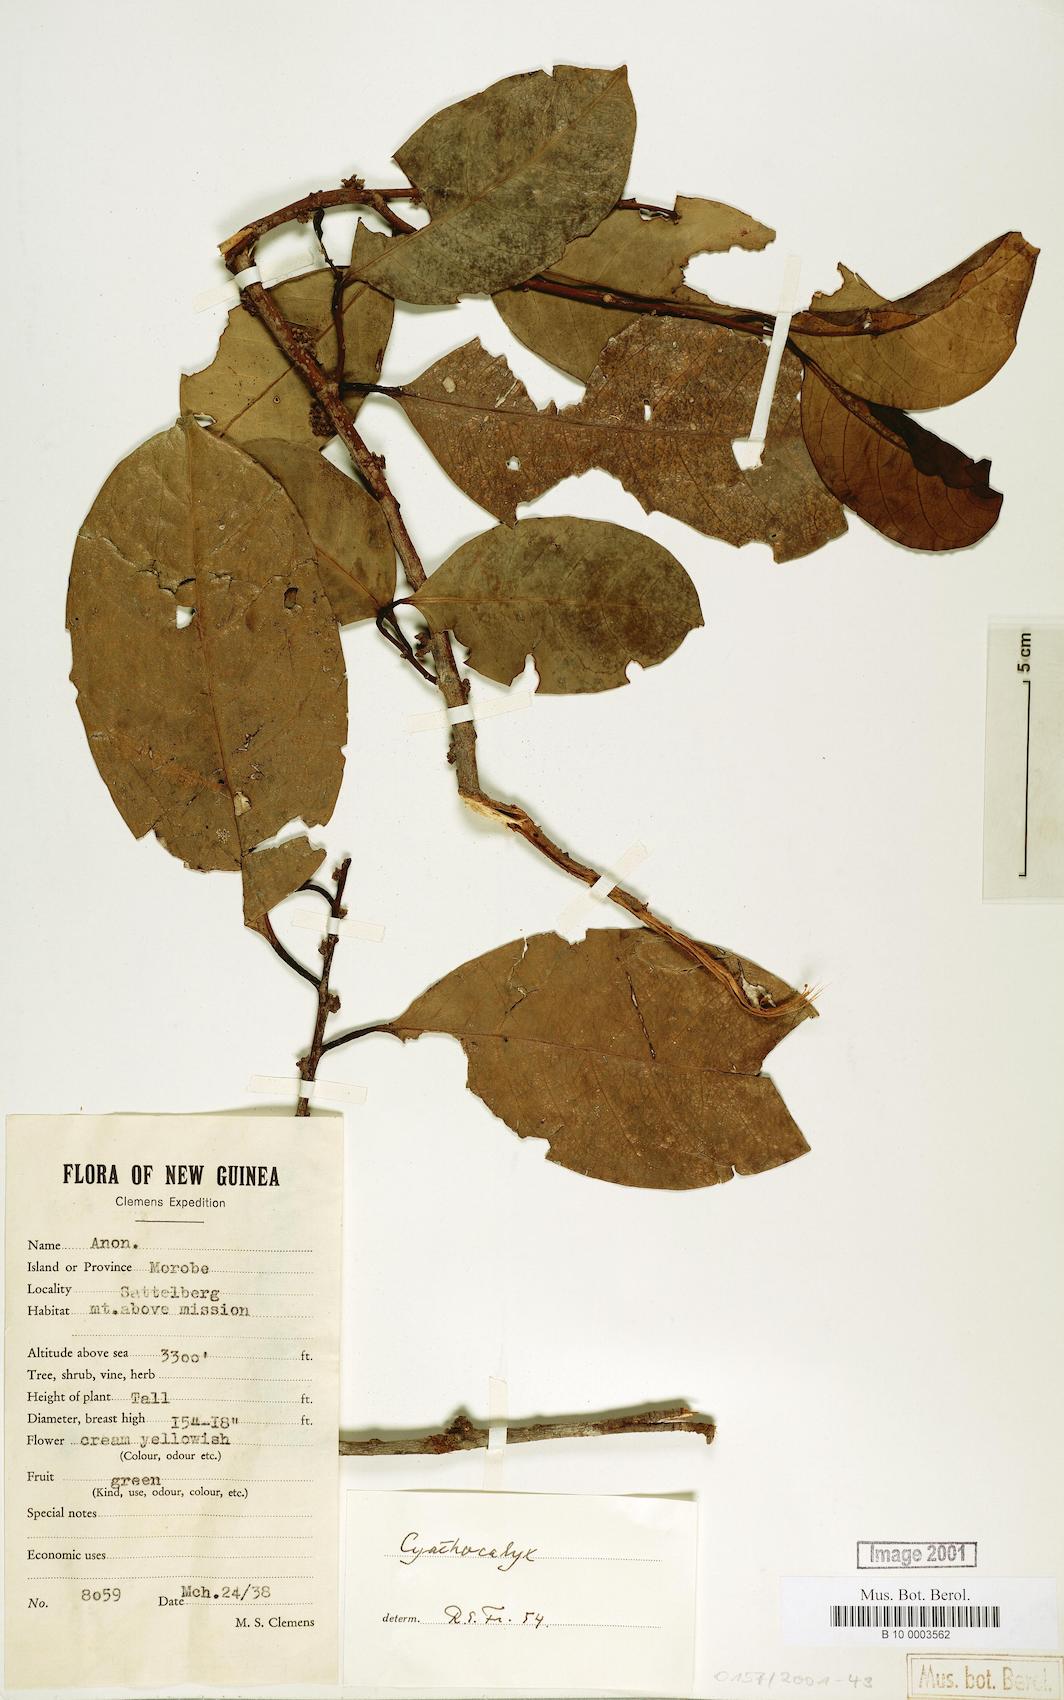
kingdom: Plantae
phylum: Tracheophyta
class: Magnoliopsida
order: Magnoliales
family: Annonaceae
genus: Cyathocalyx
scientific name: Cyathocalyx
